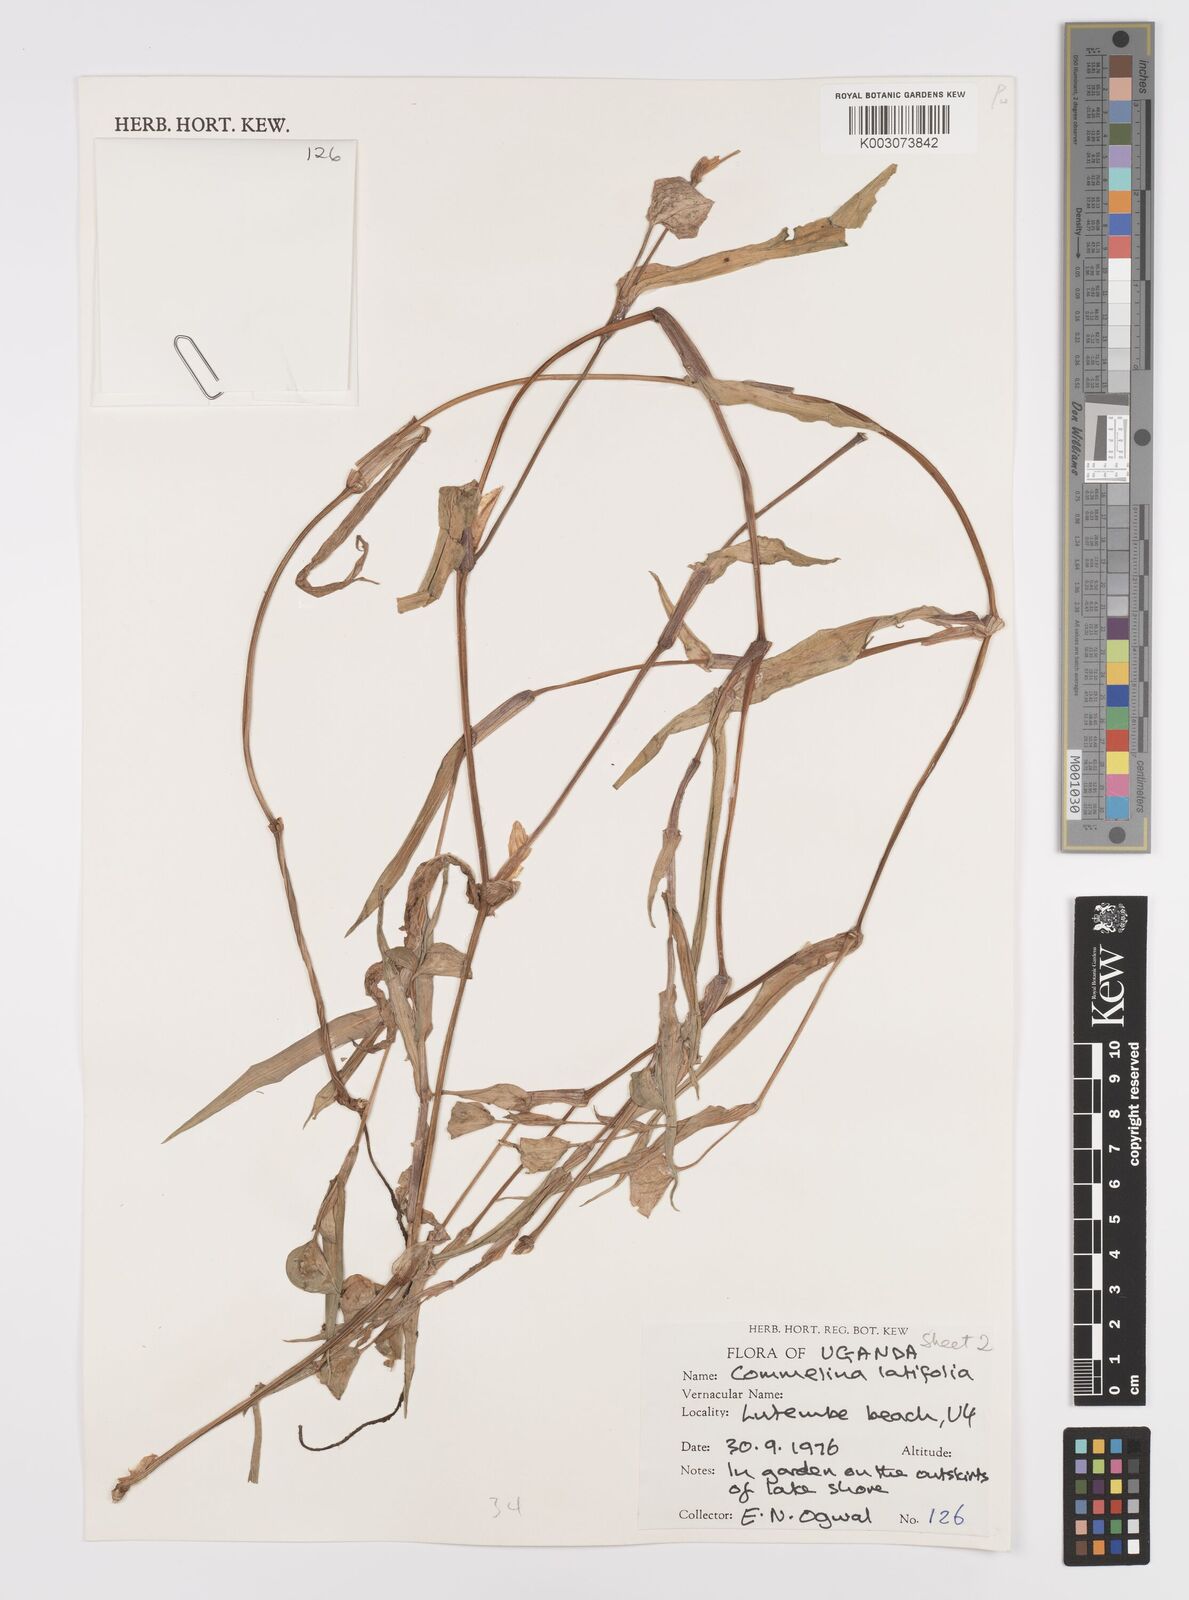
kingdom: Plantae
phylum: Tracheophyta
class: Liliopsida
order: Commelinales
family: Commelinaceae
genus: Commelina
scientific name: Commelina latifolia
